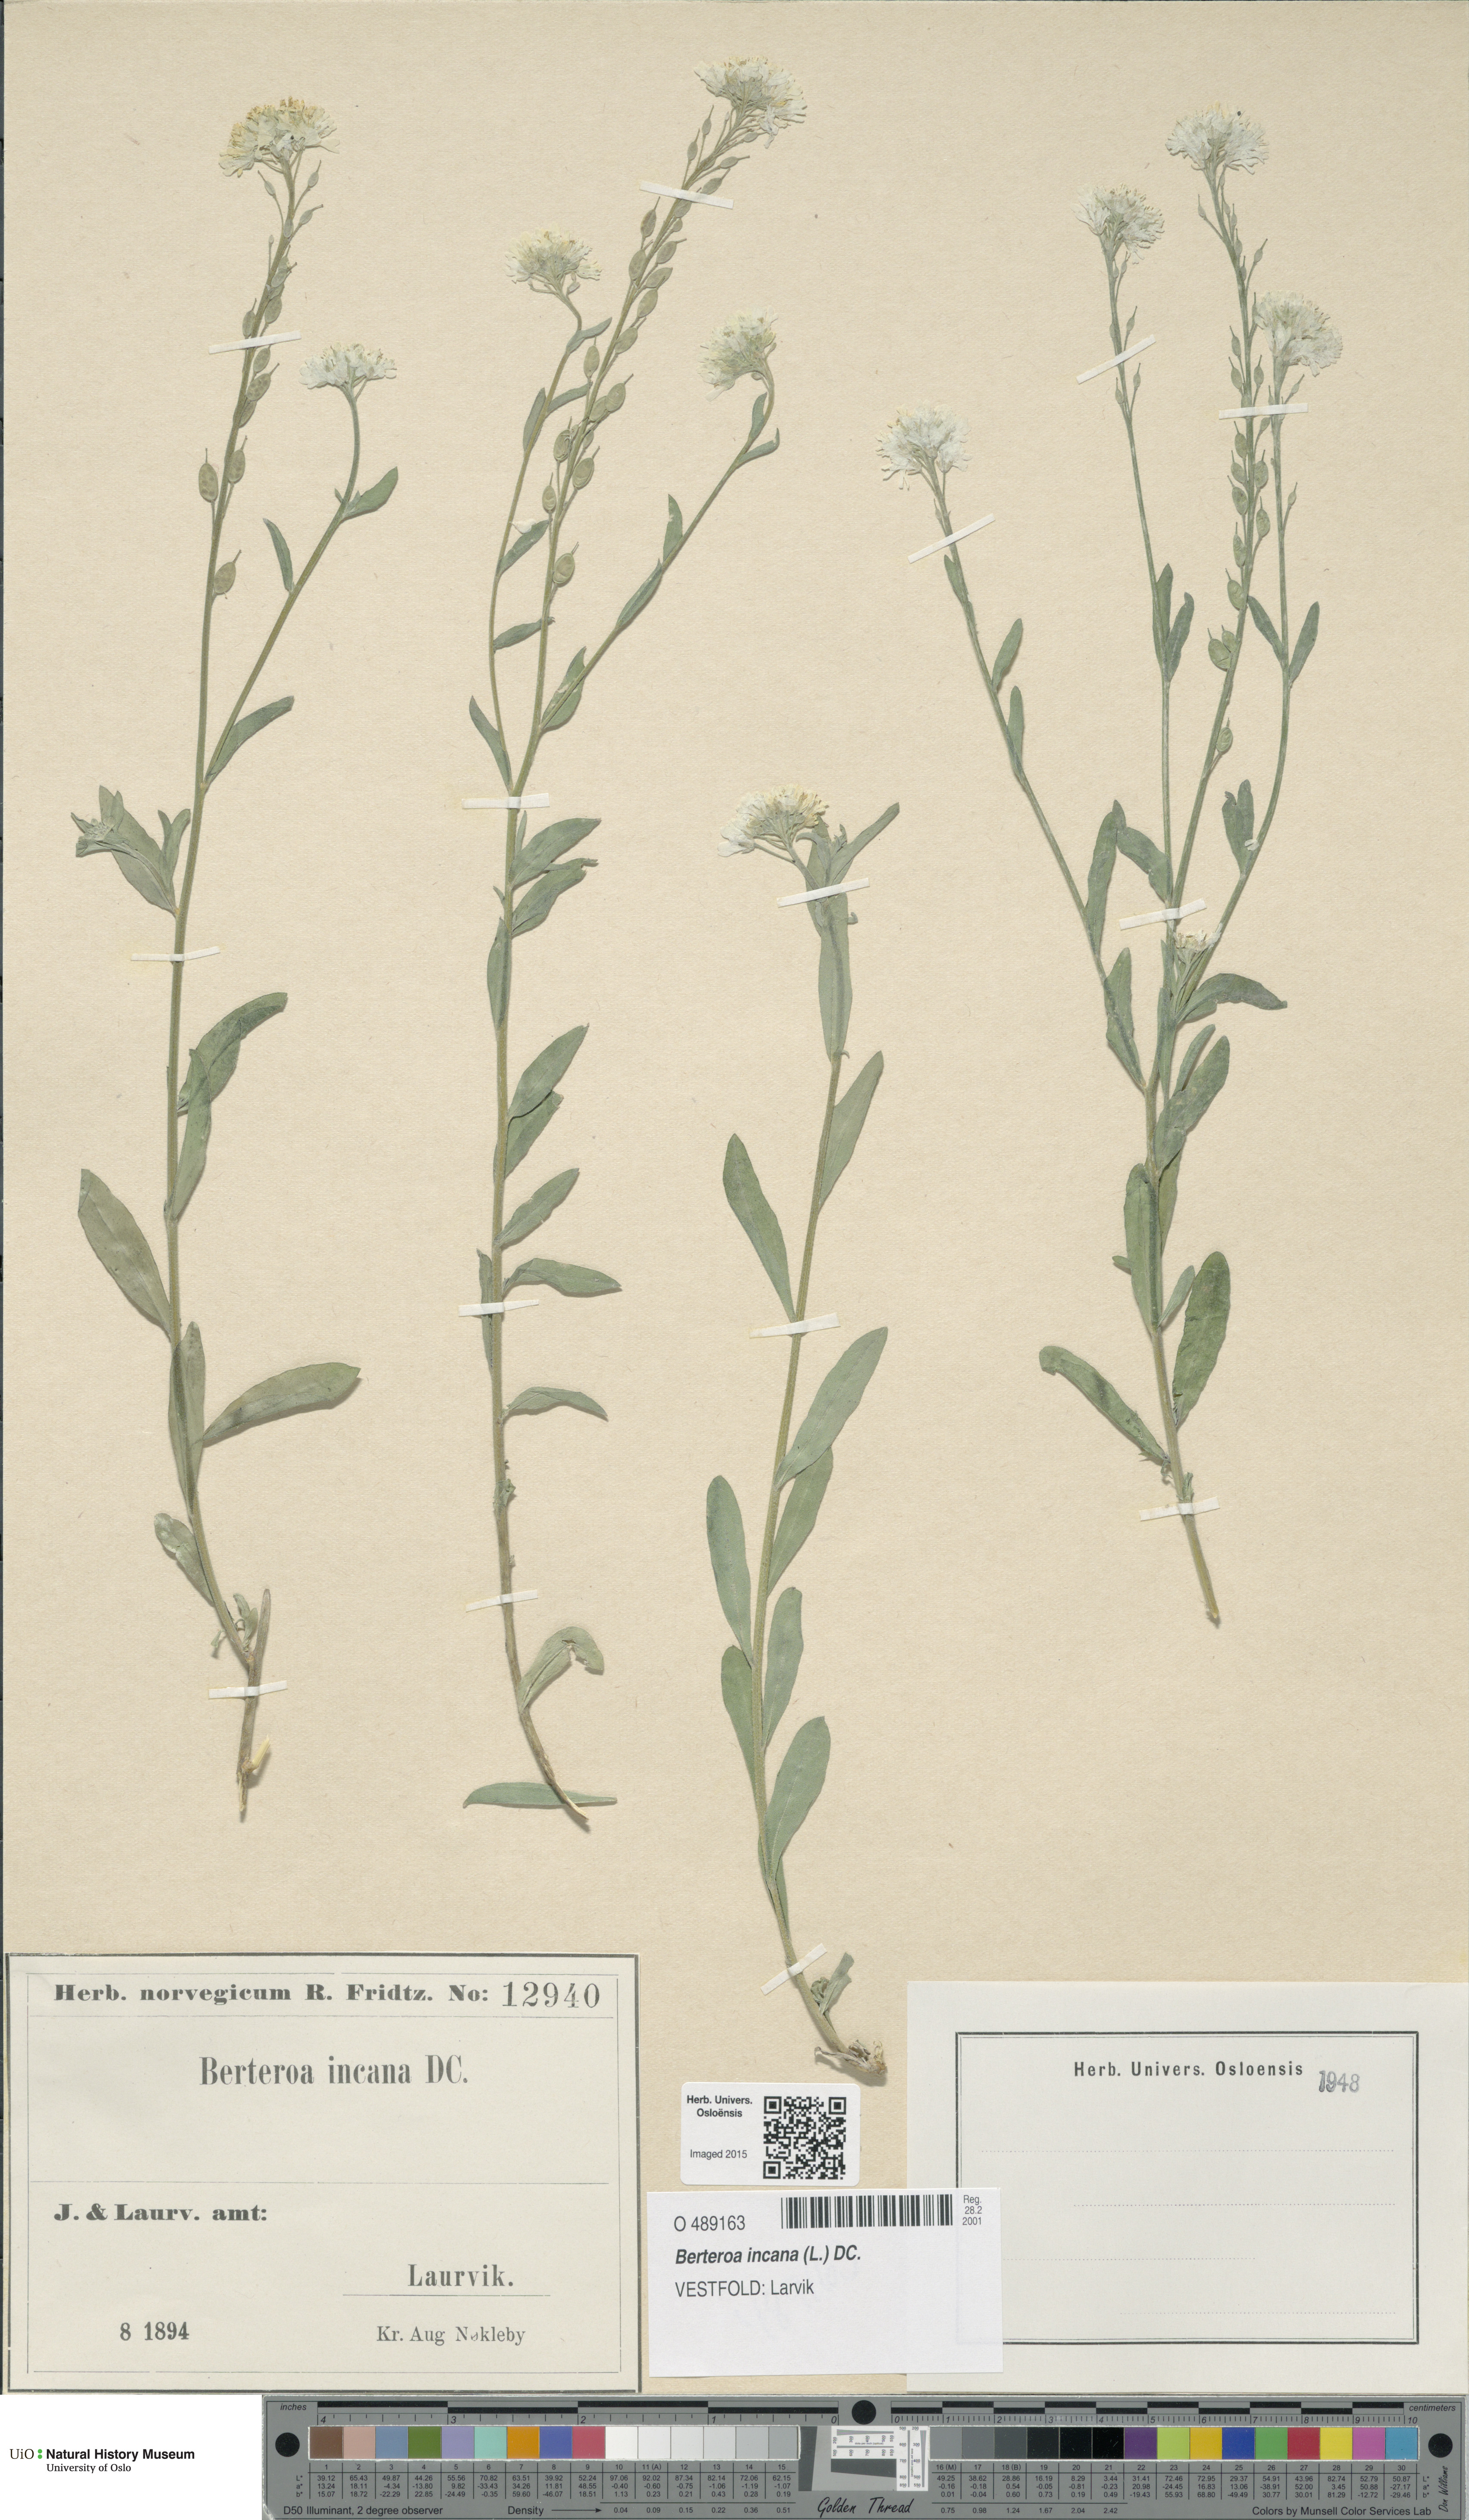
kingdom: Plantae
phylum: Tracheophyta
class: Magnoliopsida
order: Brassicales
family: Brassicaceae
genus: Berteroa
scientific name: Berteroa incana
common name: Hoary alison
